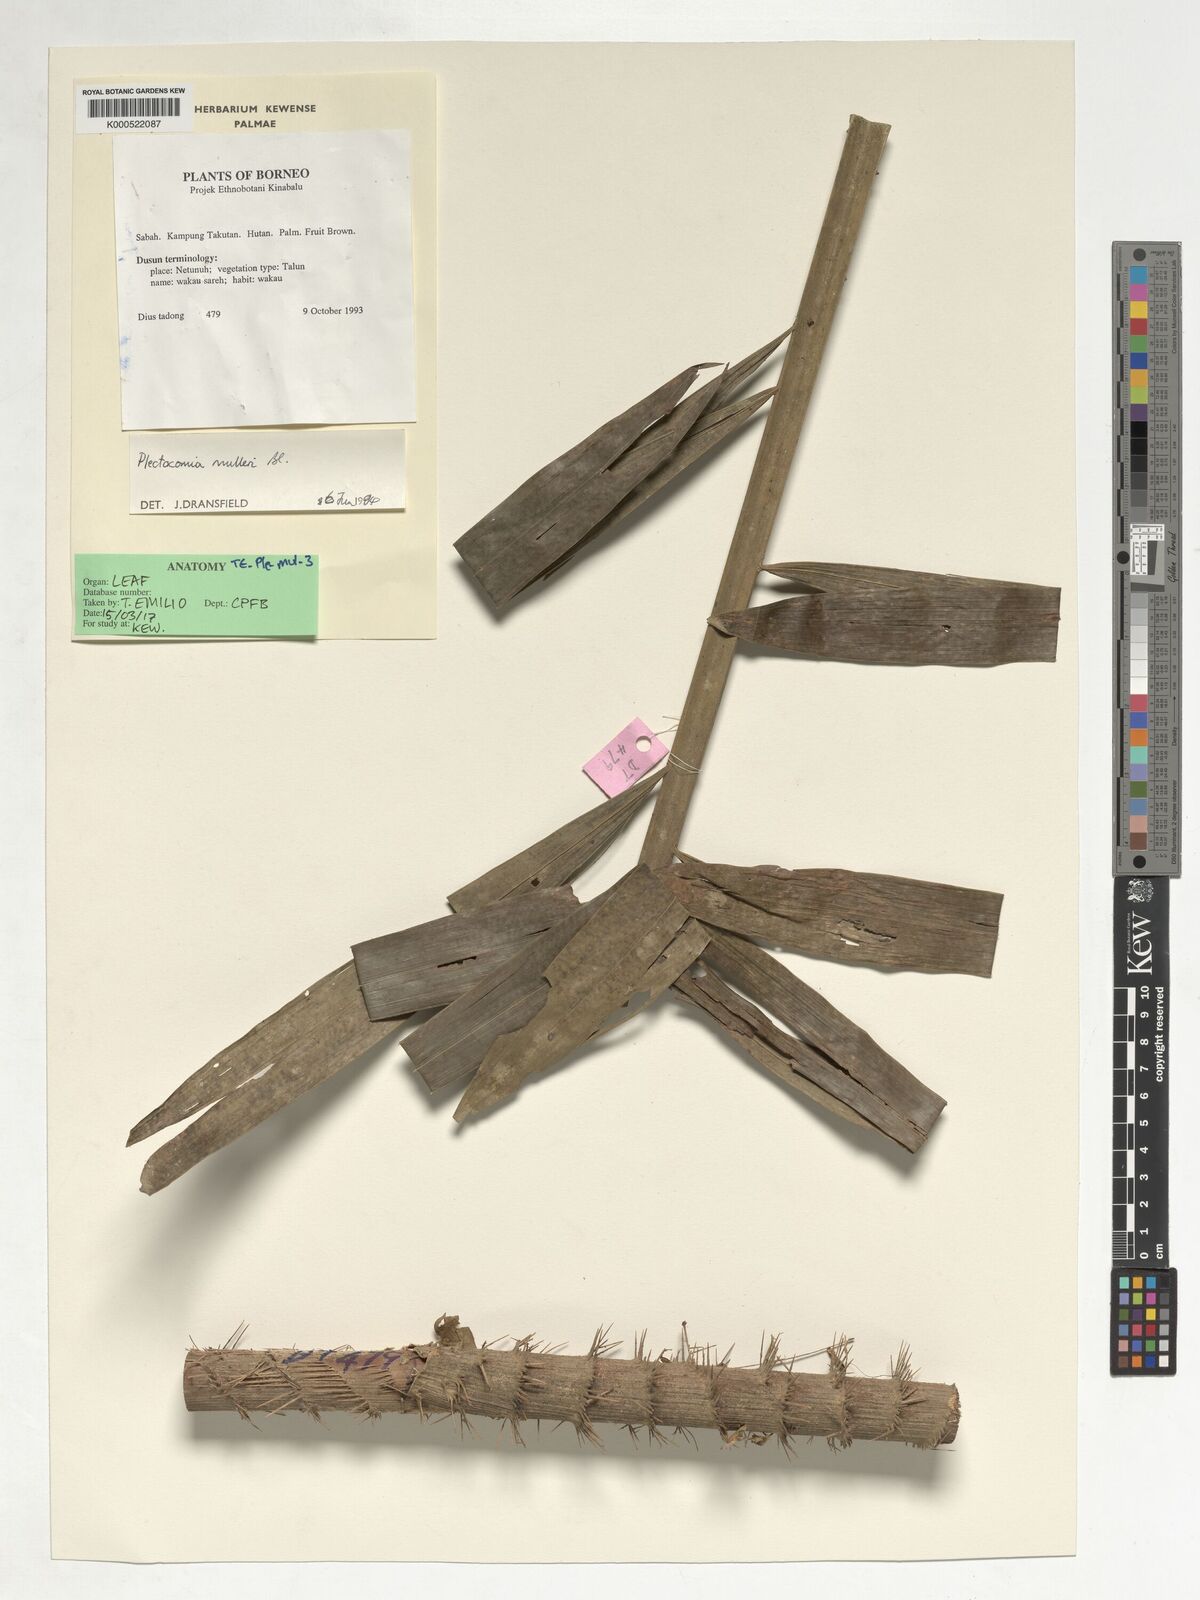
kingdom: Plantae
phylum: Tracheophyta
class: Liliopsida
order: Arecales
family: Arecaceae
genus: Plectocomia
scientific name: Plectocomia mulleri
